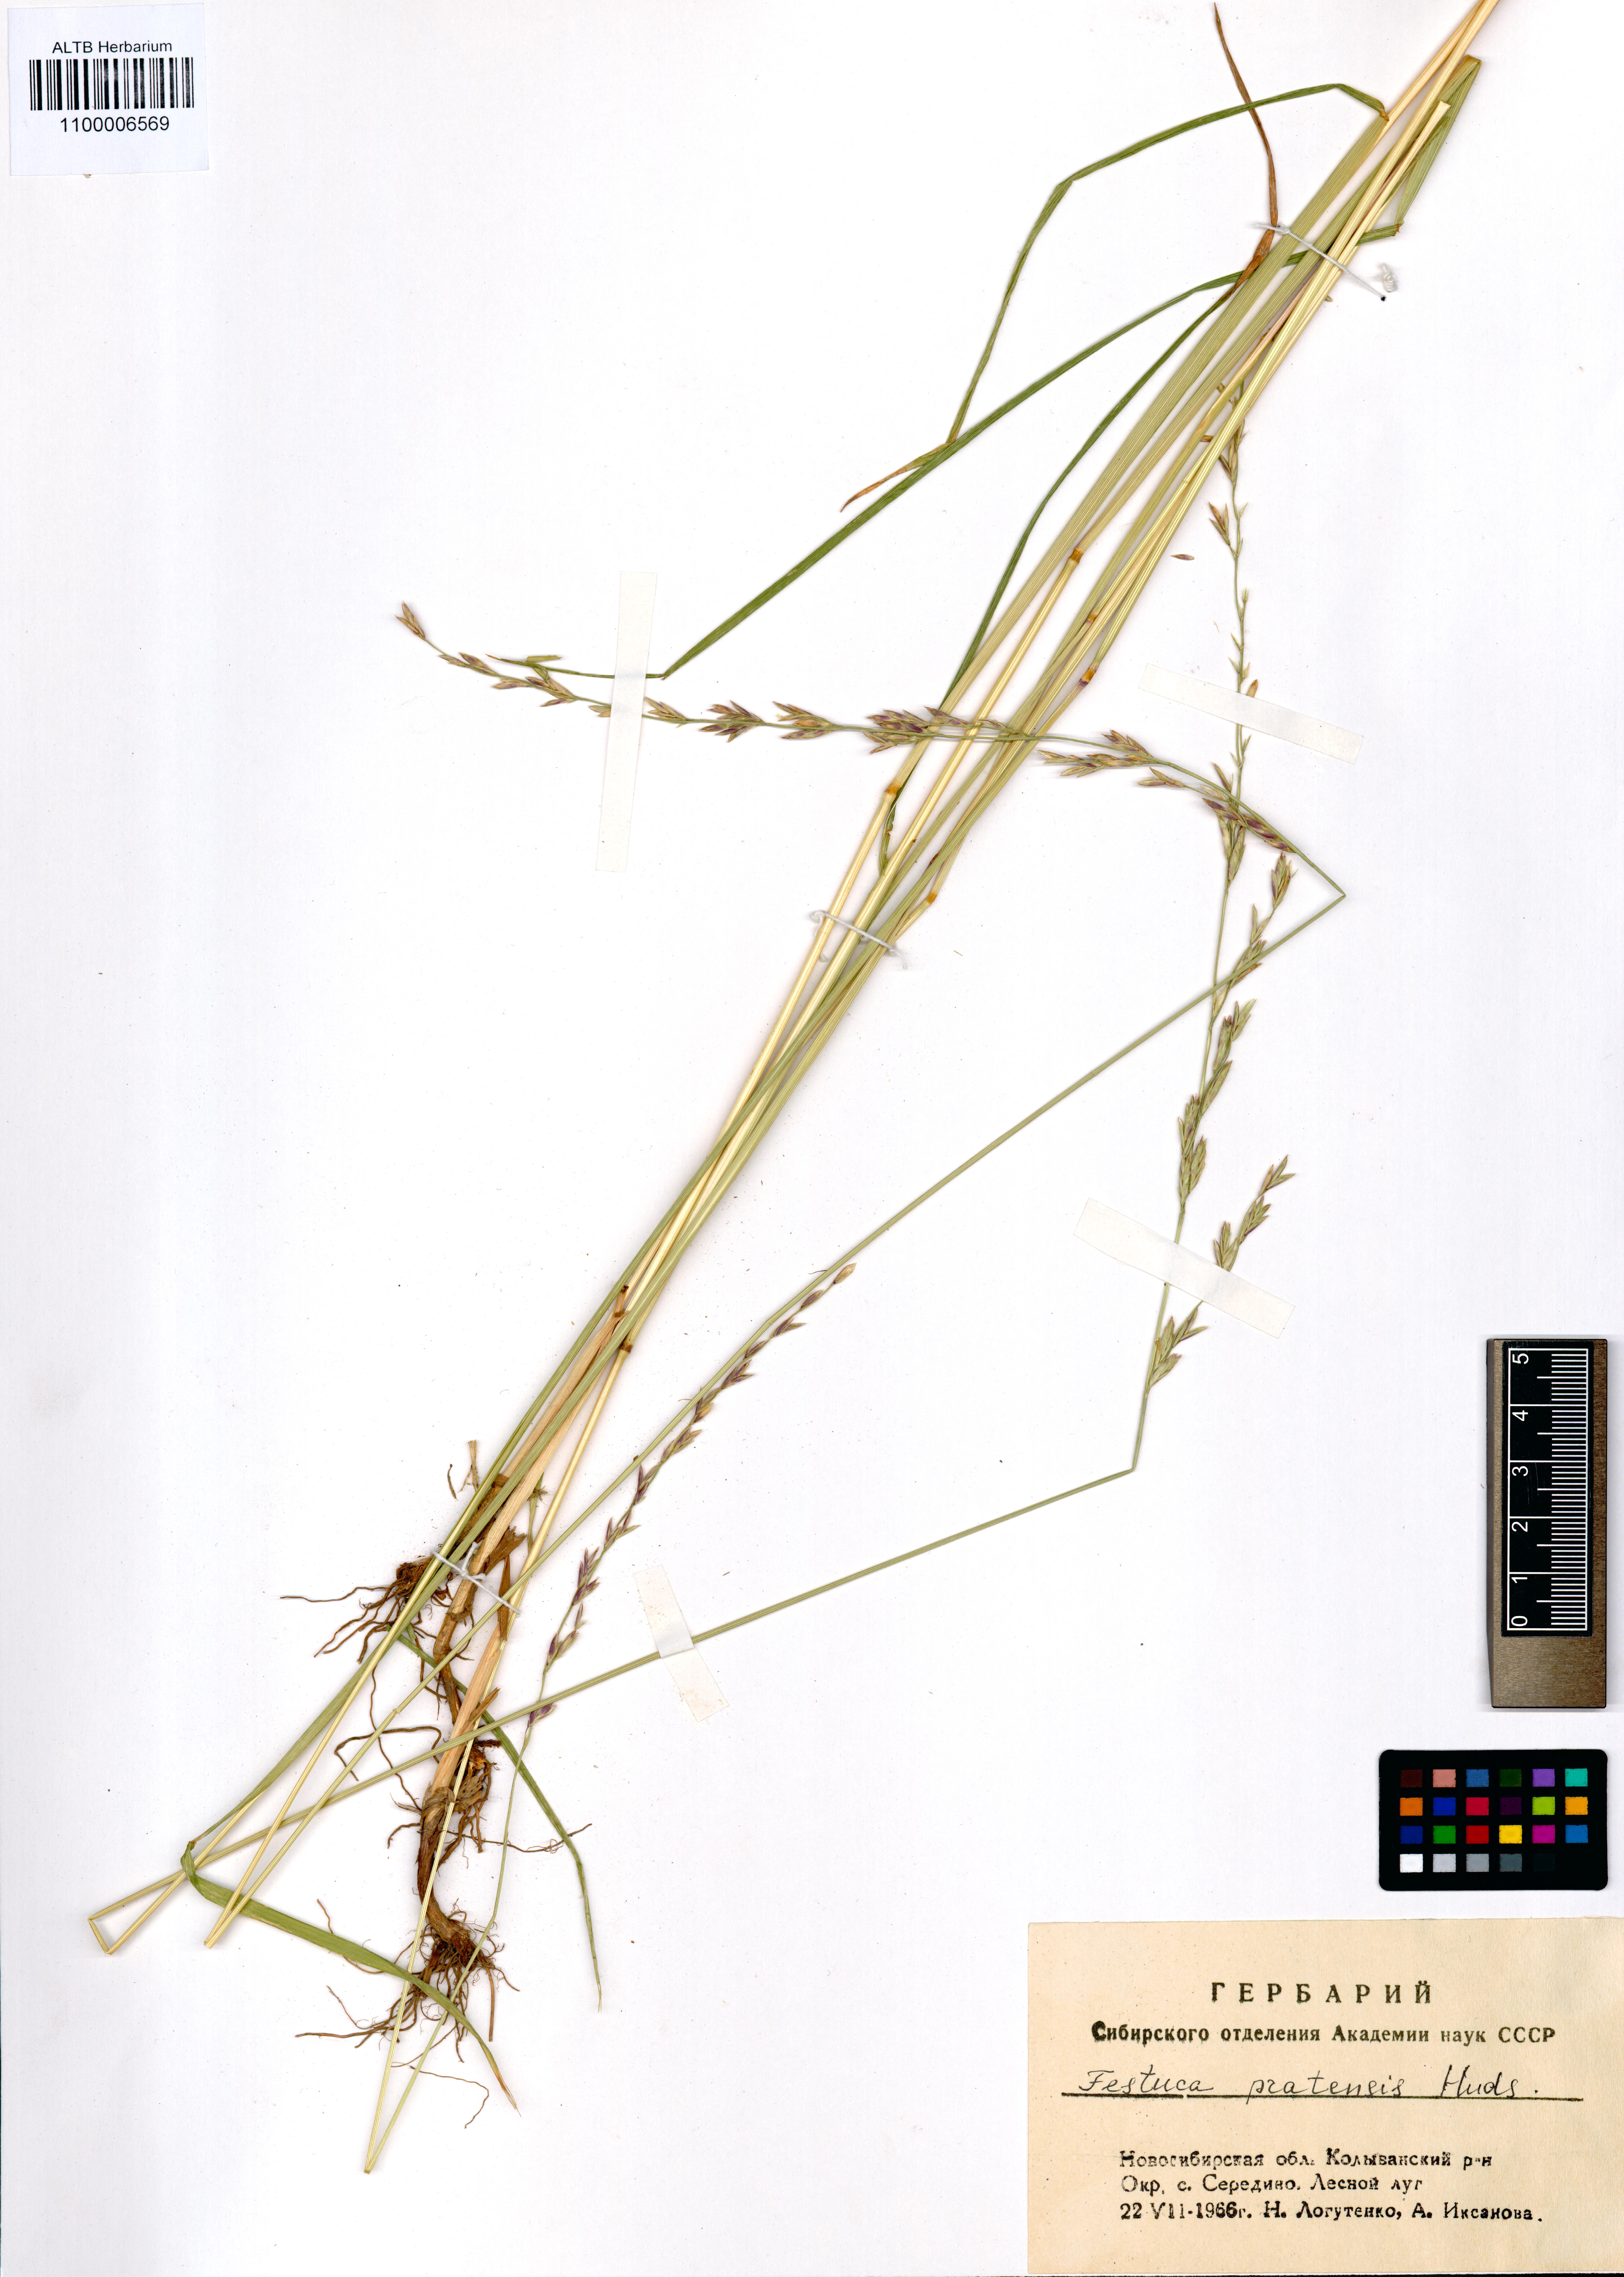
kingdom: Plantae
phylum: Tracheophyta
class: Liliopsida
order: Poales
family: Poaceae
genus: Lolium
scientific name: Lolium pratense
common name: Dover grass
